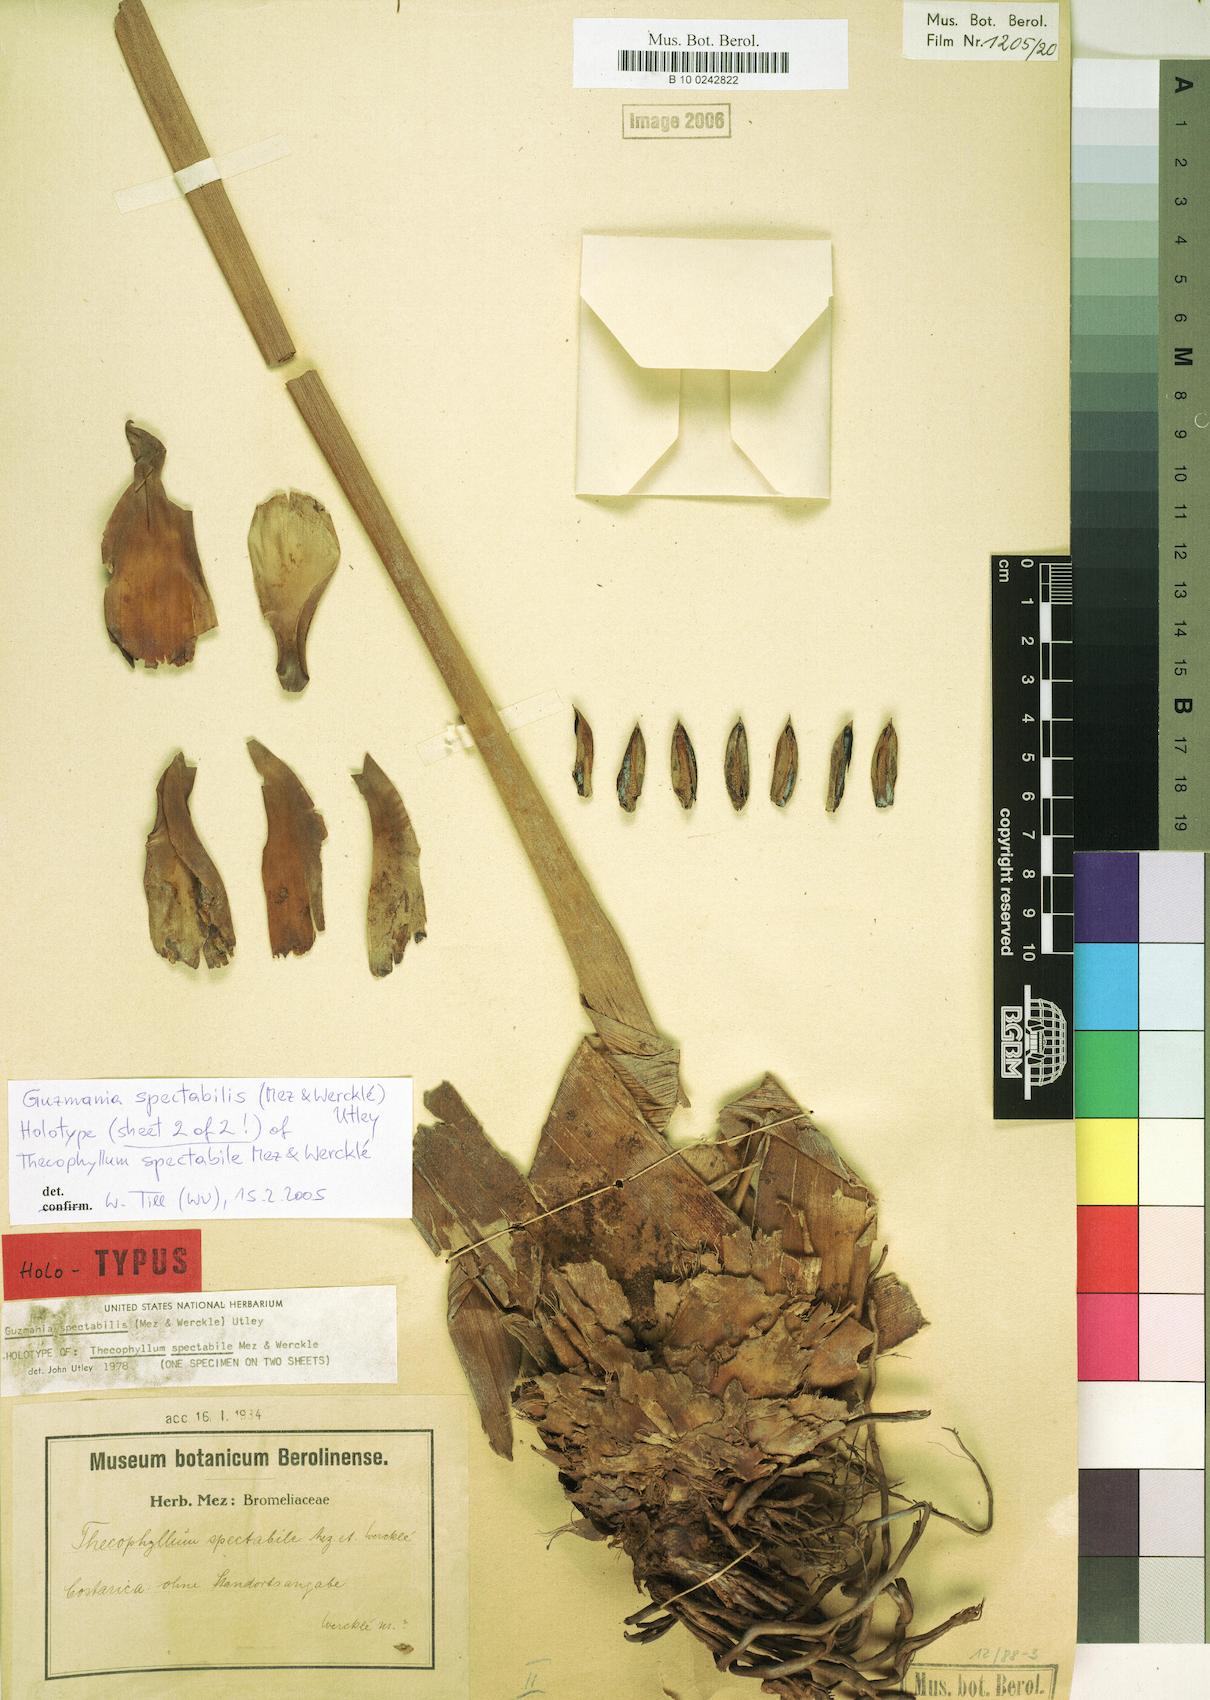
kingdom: Plantae
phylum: Tracheophyta
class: Liliopsida
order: Poales
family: Bromeliaceae
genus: Guzmania
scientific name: Guzmania anae
